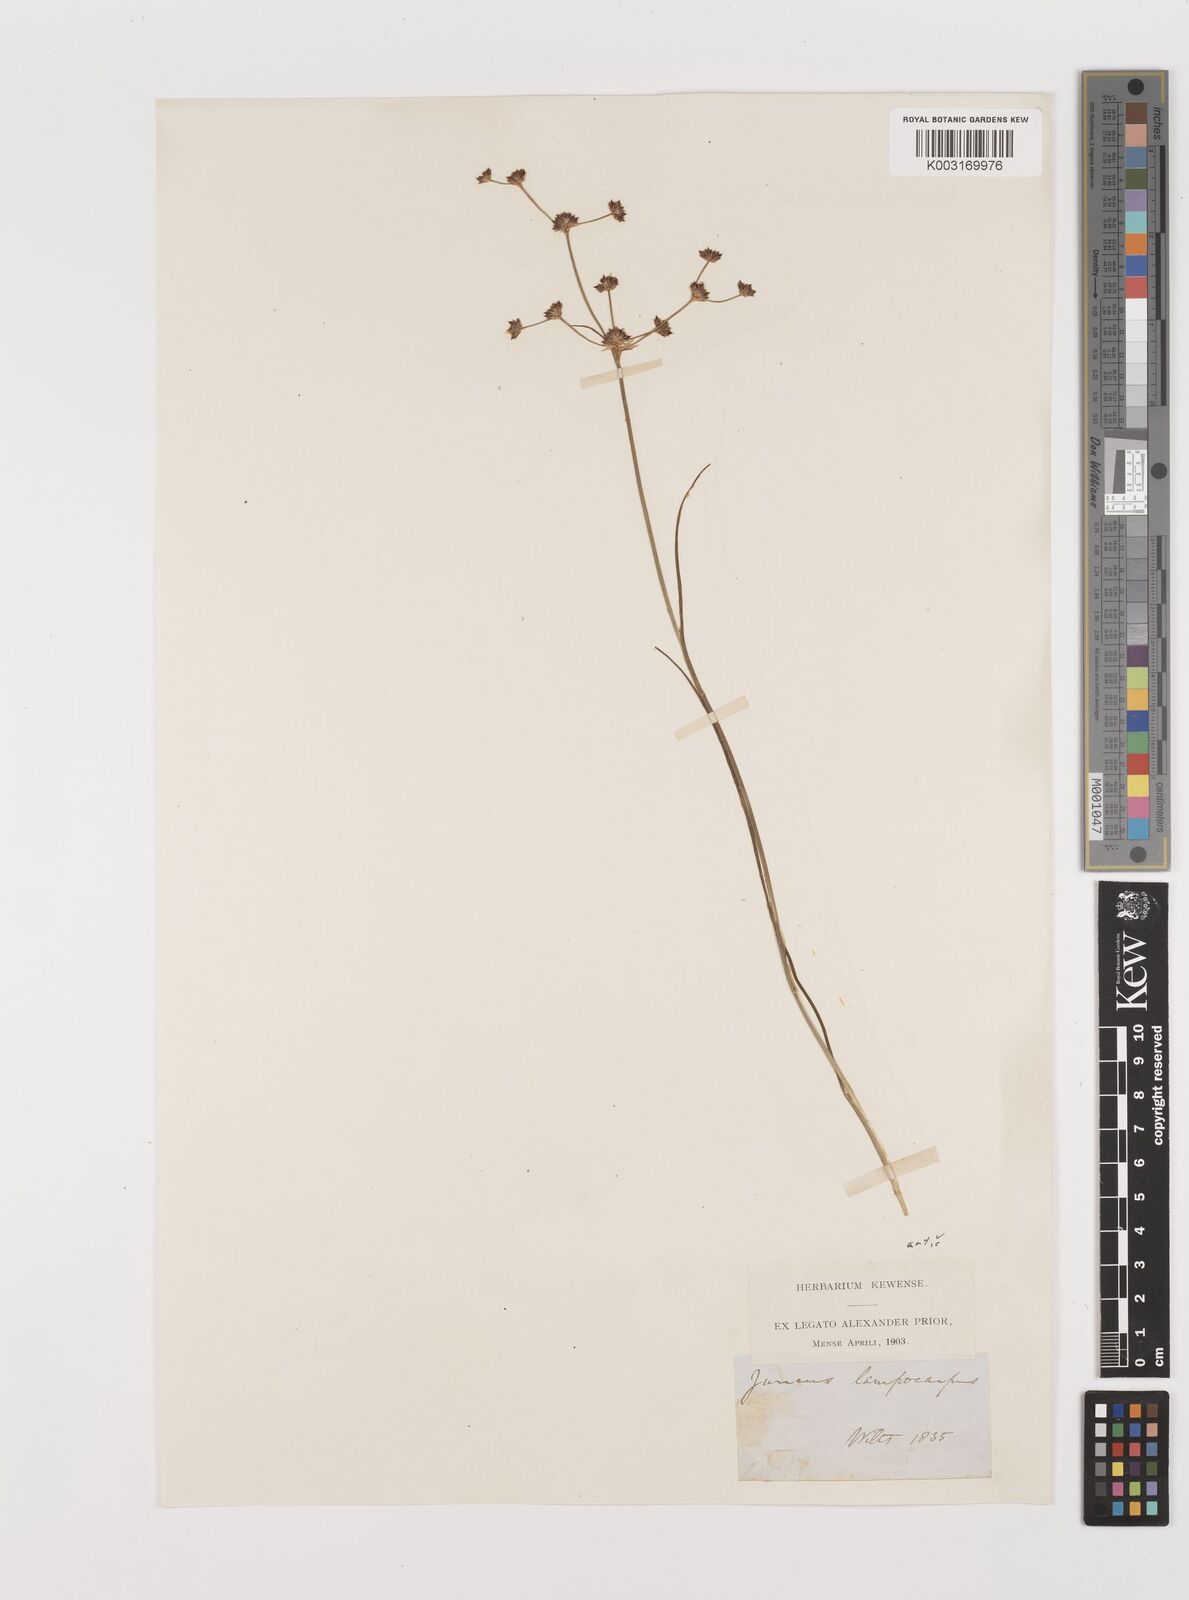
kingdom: Plantae
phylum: Tracheophyta
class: Liliopsida
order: Poales
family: Juncaceae
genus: Juncus
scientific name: Juncus articulatus
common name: Jointed rush
